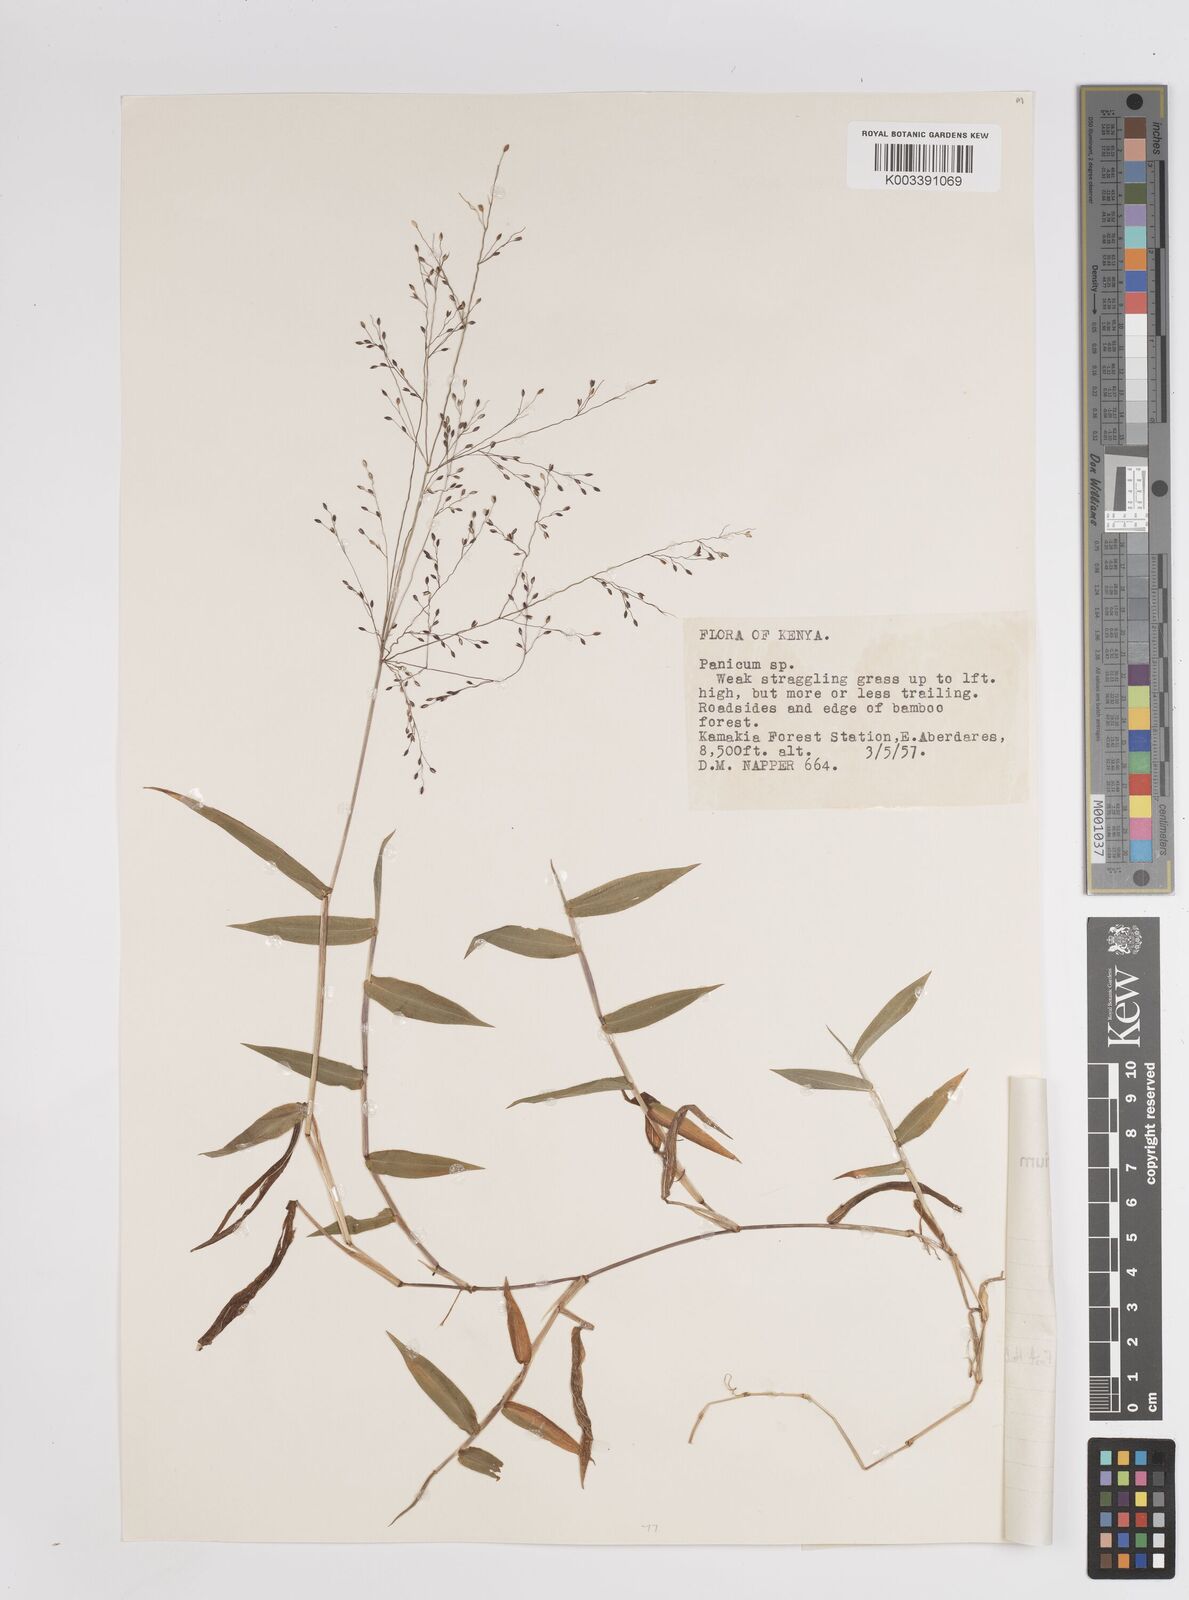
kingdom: Plantae
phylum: Tracheophyta
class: Liliopsida
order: Poales
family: Poaceae
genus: Panicum
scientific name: Panicum calvum
